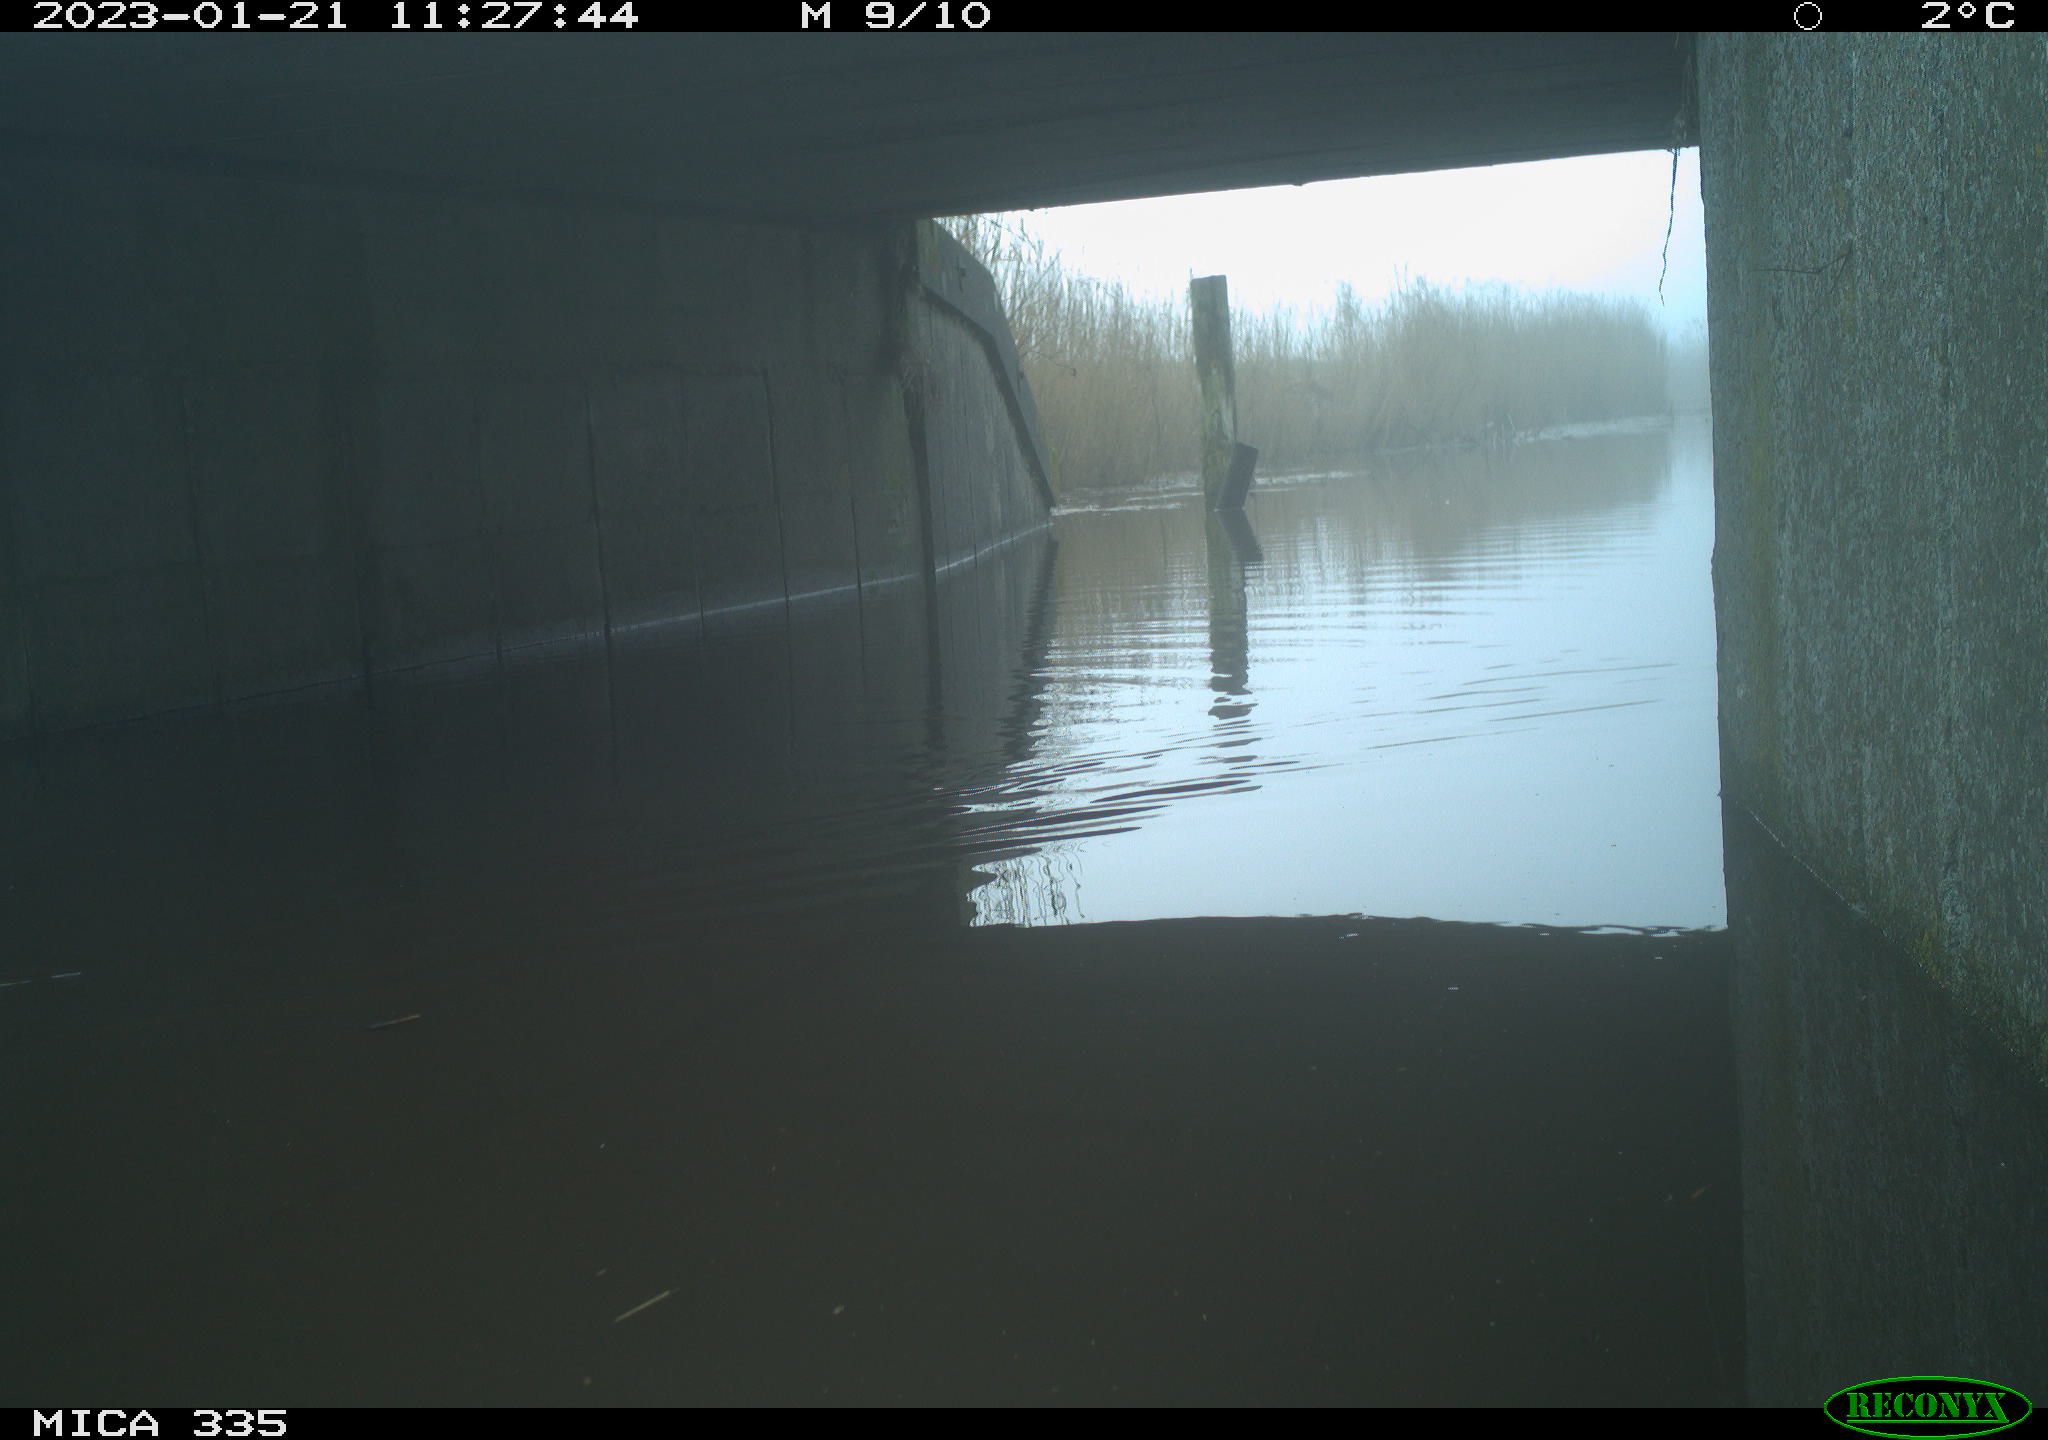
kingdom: Animalia
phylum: Chordata
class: Aves
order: Anseriformes
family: Anatidae
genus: Anas
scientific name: Anas
